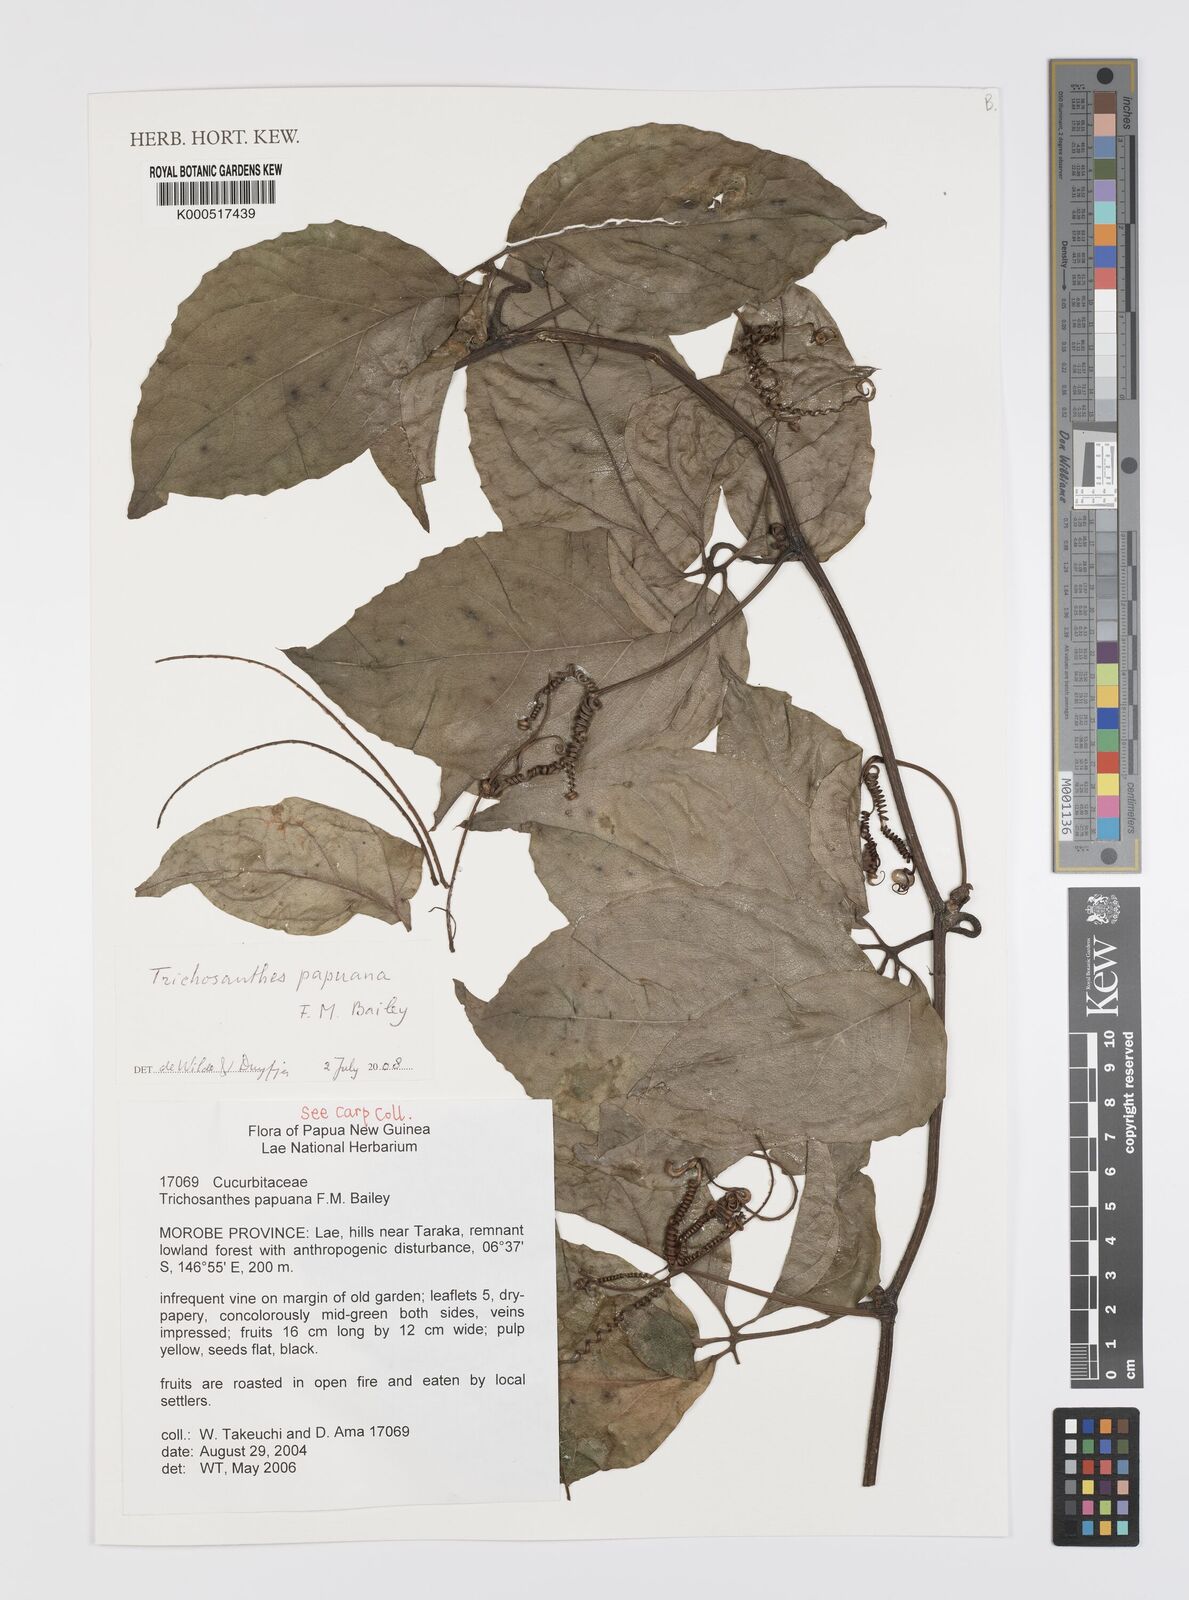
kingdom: Plantae
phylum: Tracheophyta
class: Magnoliopsida
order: Cucurbitales
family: Cucurbitaceae
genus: Trichosanthes
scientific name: Trichosanthes papuana
